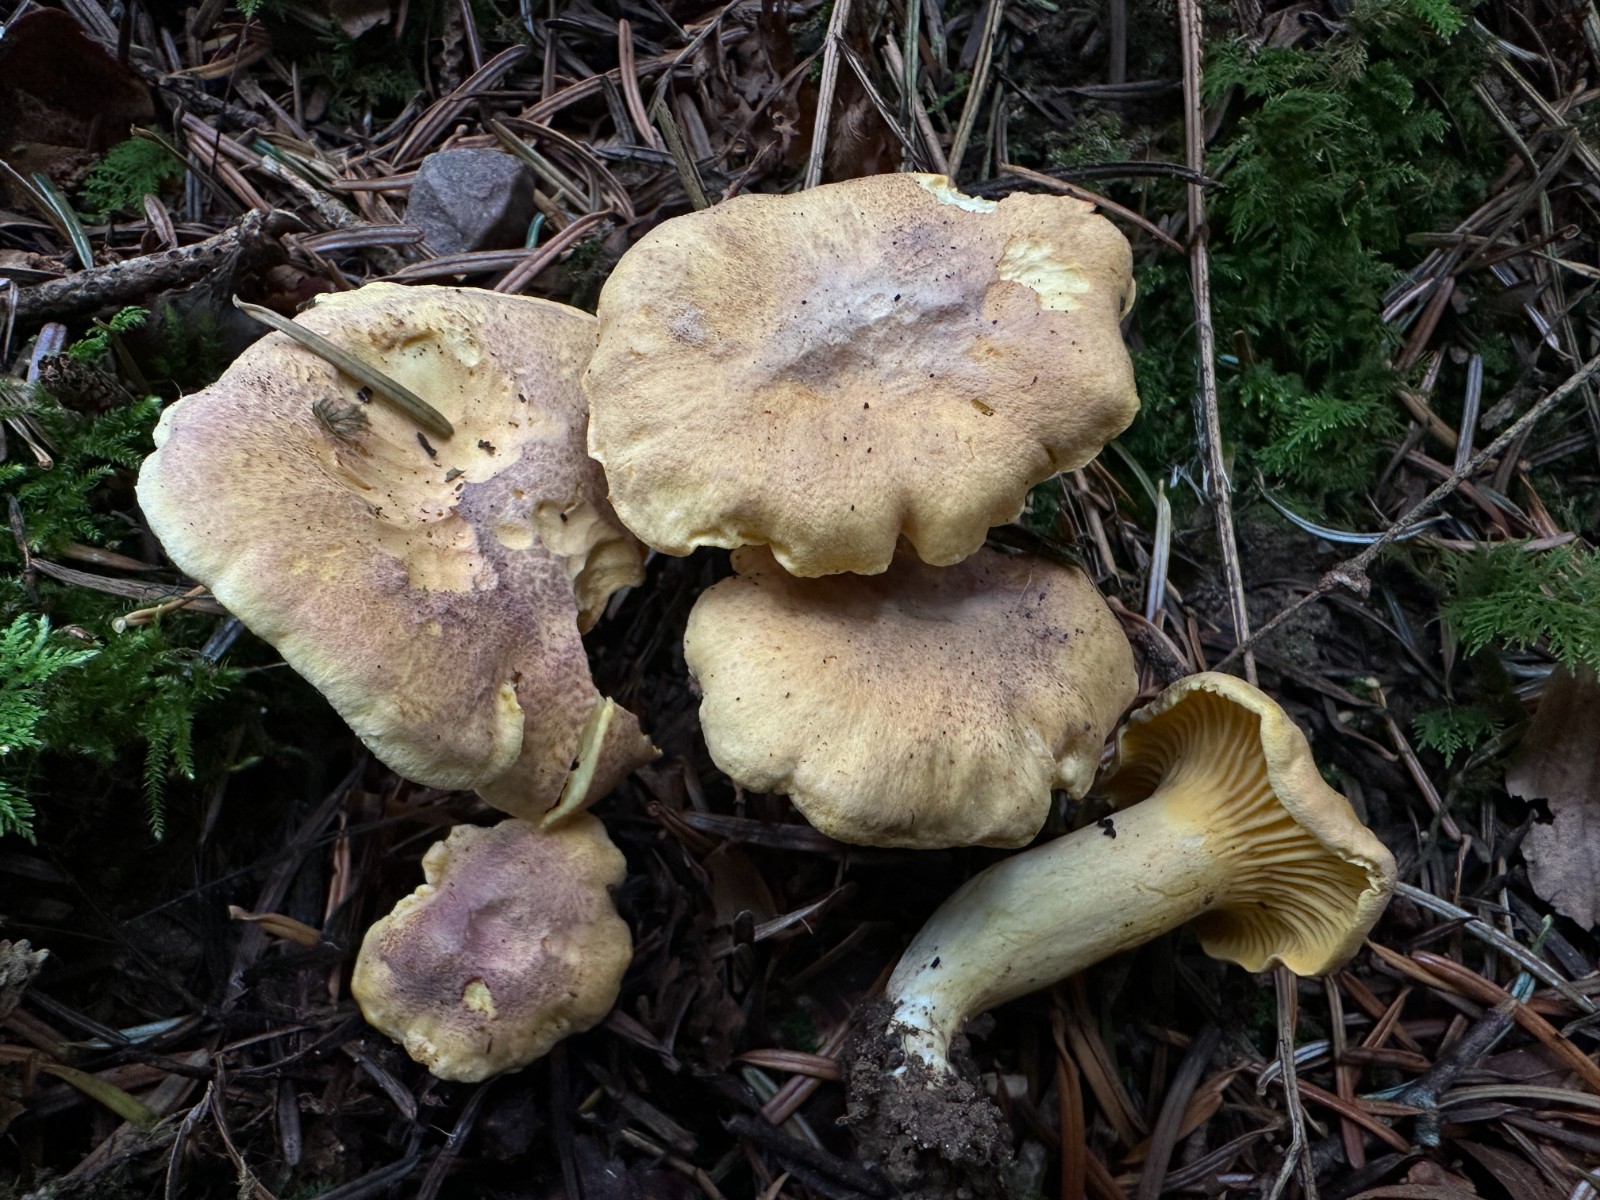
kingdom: Fungi
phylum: Basidiomycota
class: Agaricomycetes
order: Cantharellales
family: Hydnaceae
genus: Cantharellus
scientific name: Cantharellus amethysteus
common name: ametyst-kantarel
